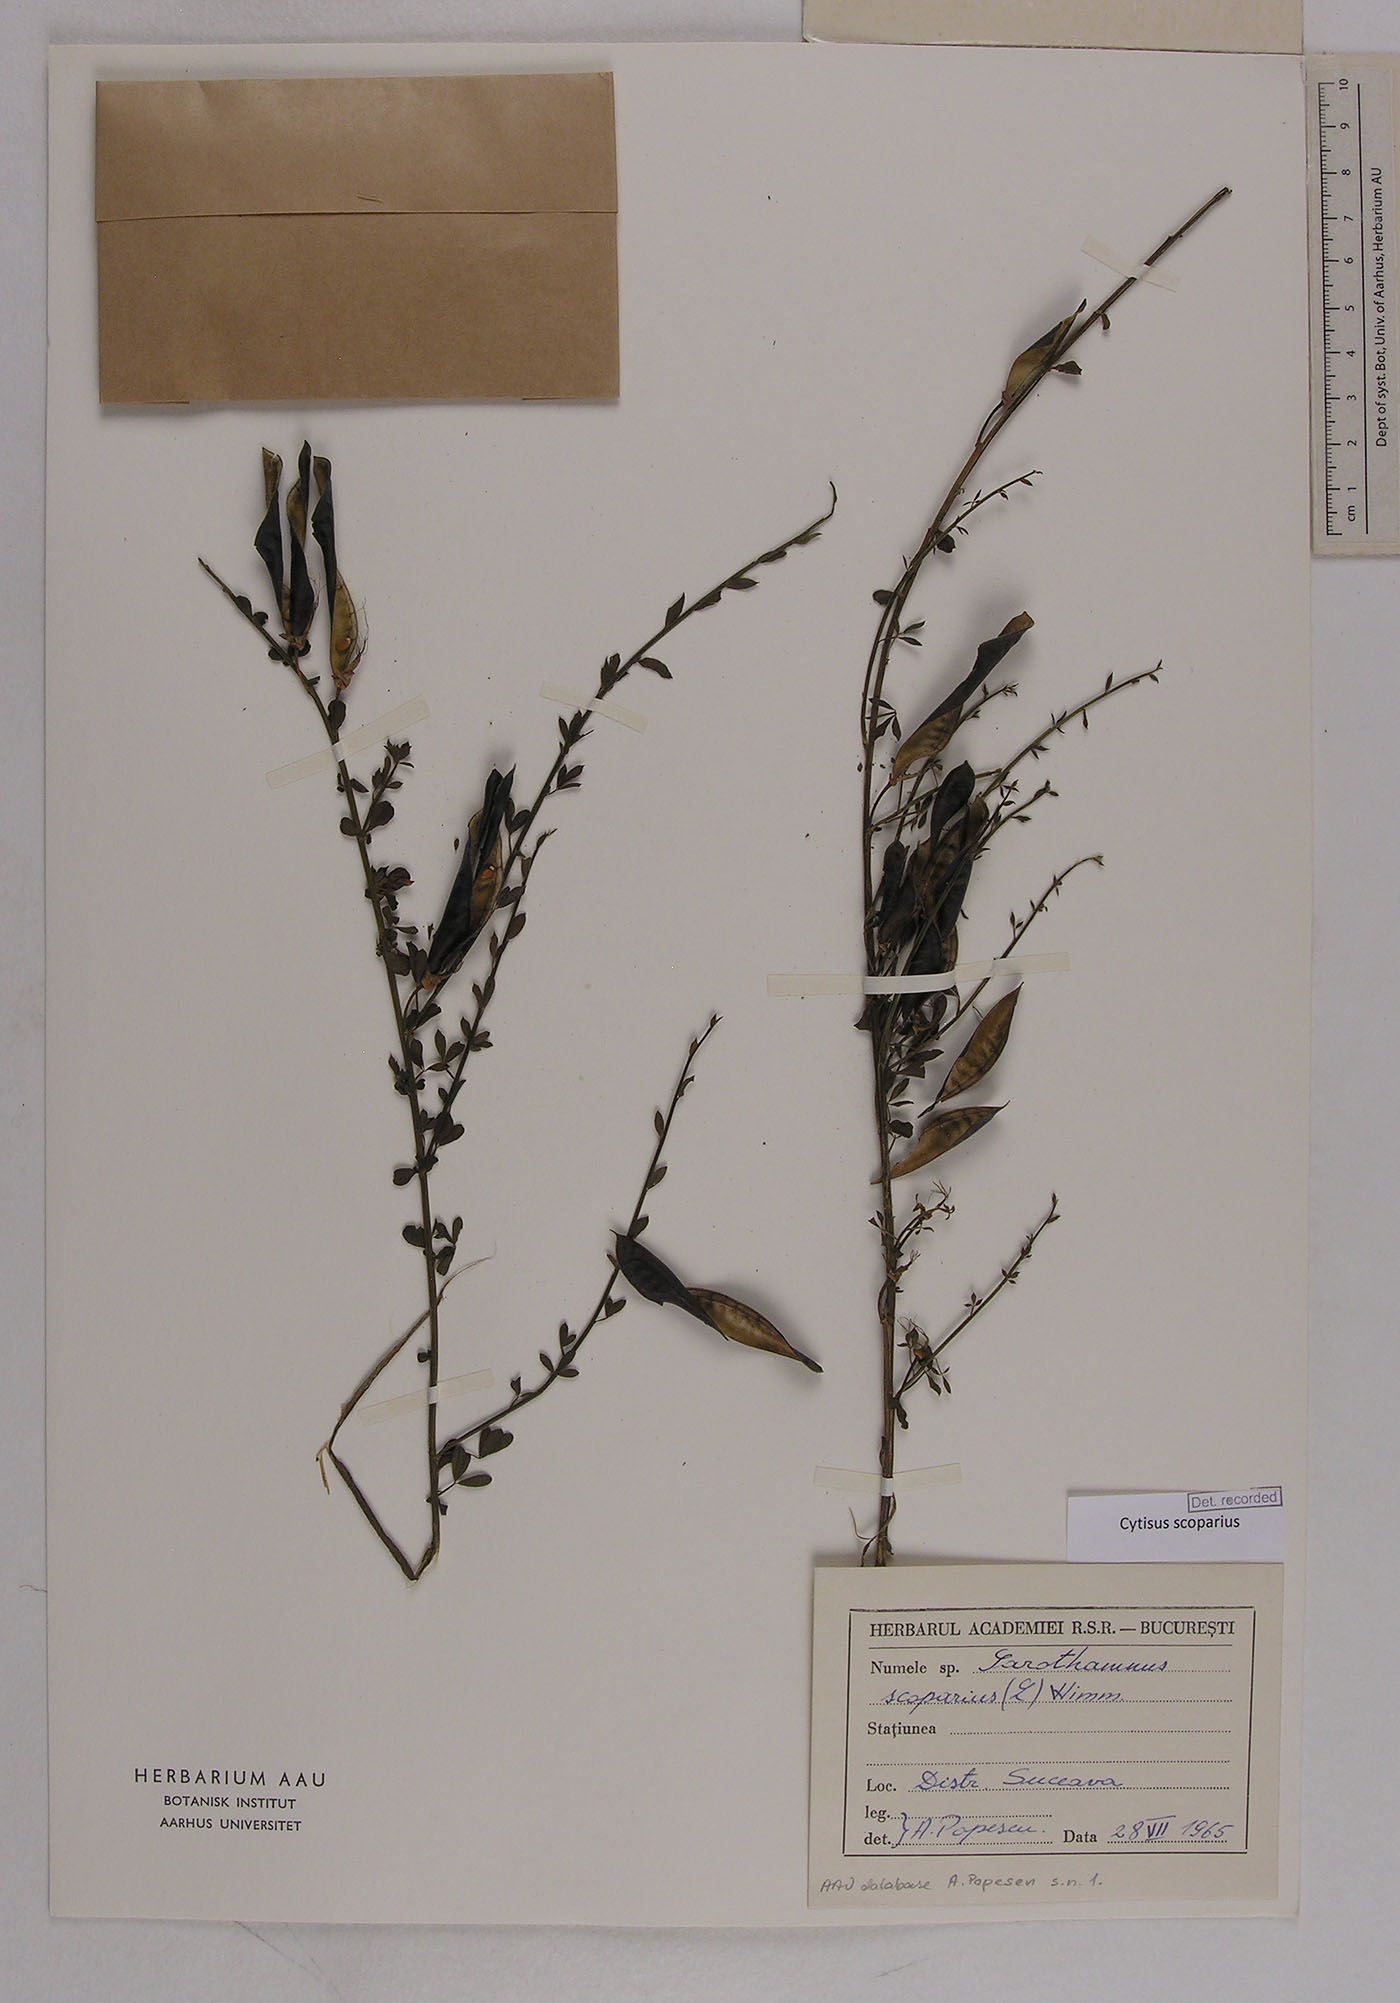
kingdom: Plantae
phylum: Tracheophyta
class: Magnoliopsida
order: Fabales
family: Fabaceae
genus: Cytisus
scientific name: Cytisus scoparius
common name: Scotch broom
